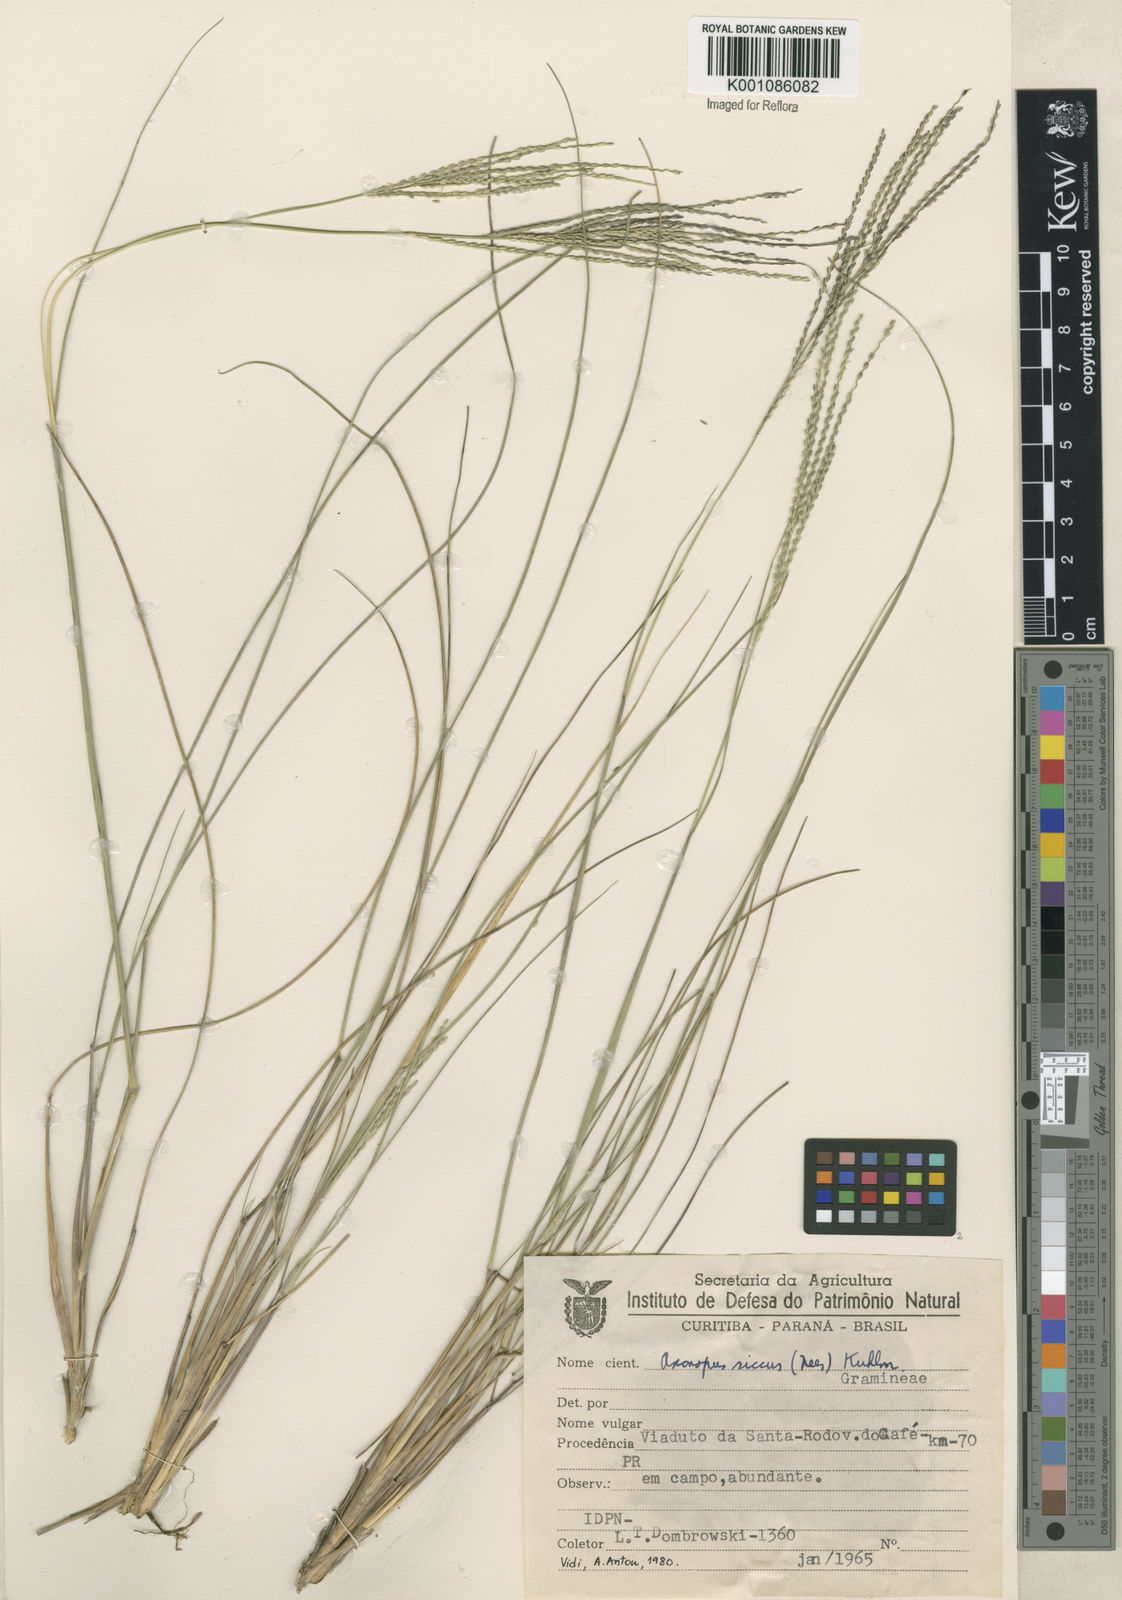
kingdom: Plantae
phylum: Tracheophyta
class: Liliopsida
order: Poales
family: Poaceae
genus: Axonopus
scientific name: Axonopus siccus
